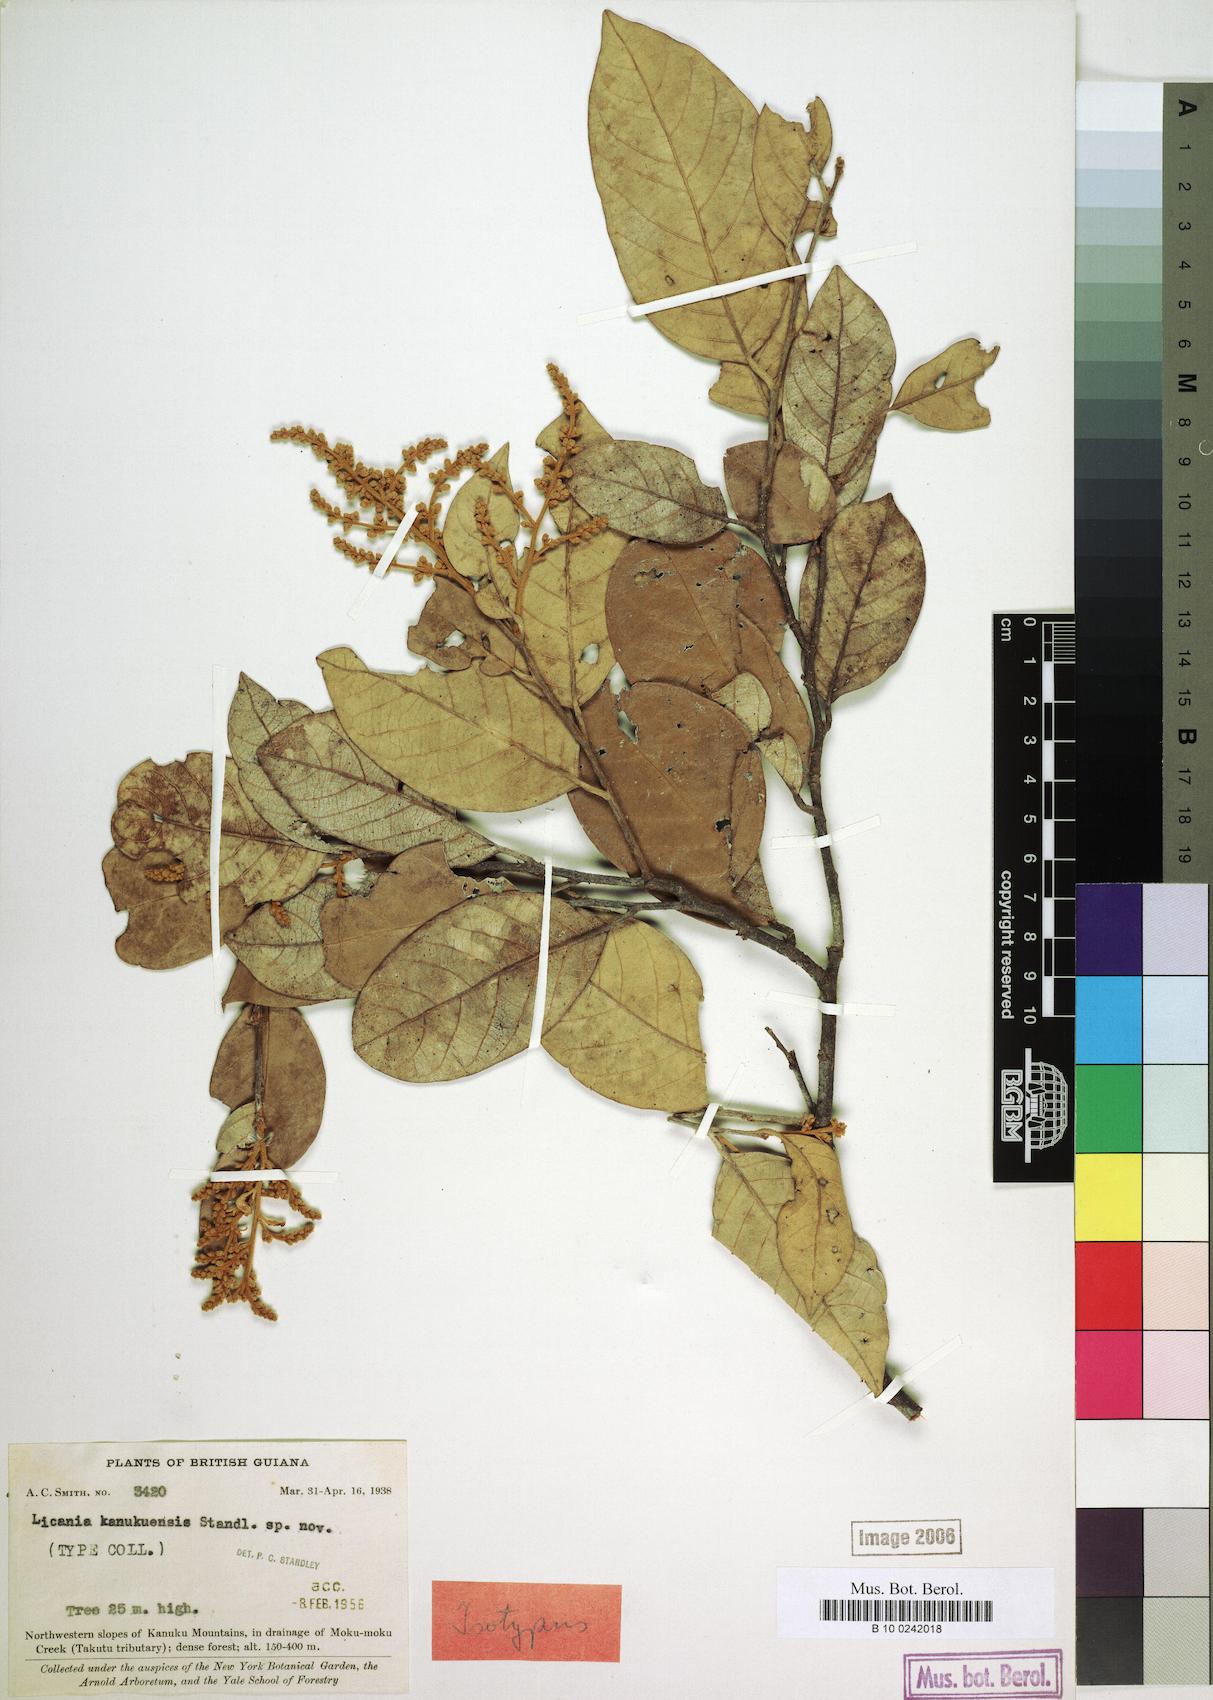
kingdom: Plantae
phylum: Tracheophyta
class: Magnoliopsida
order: Malpighiales
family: Chrysobalanaceae
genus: Licania
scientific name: Licania densiflora
